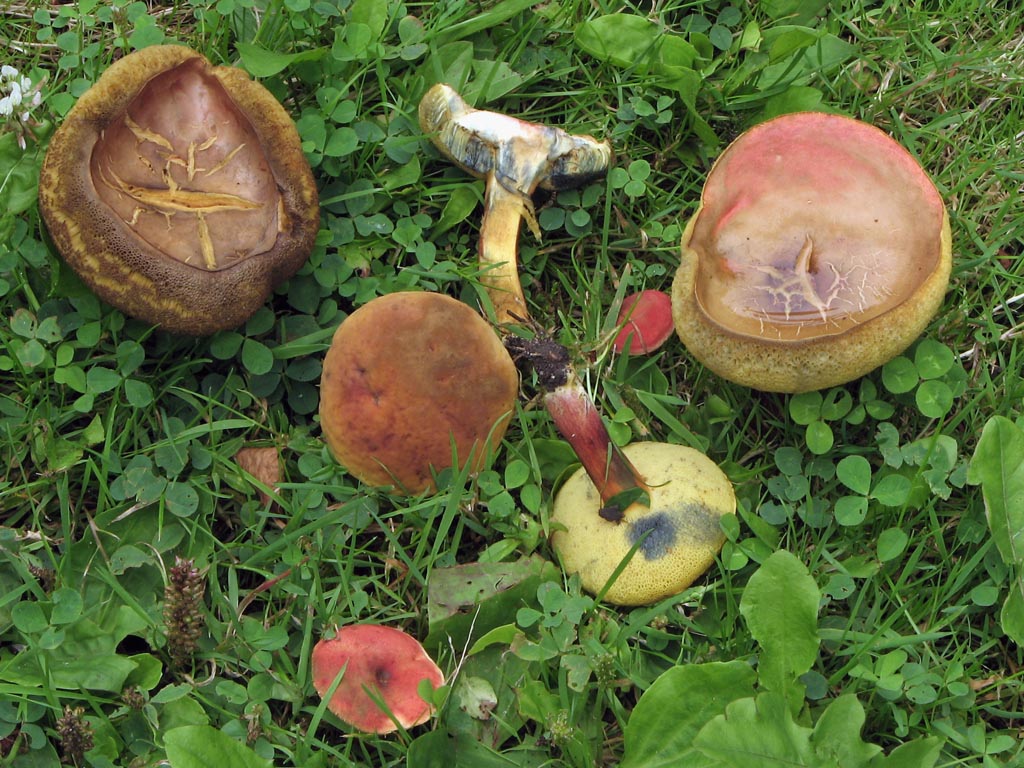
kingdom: Fungi
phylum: Basidiomycota
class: Agaricomycetes
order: Boletales
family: Boletaceae
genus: Hortiboletus
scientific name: Hortiboletus rubellus
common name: blodrød rørhat
